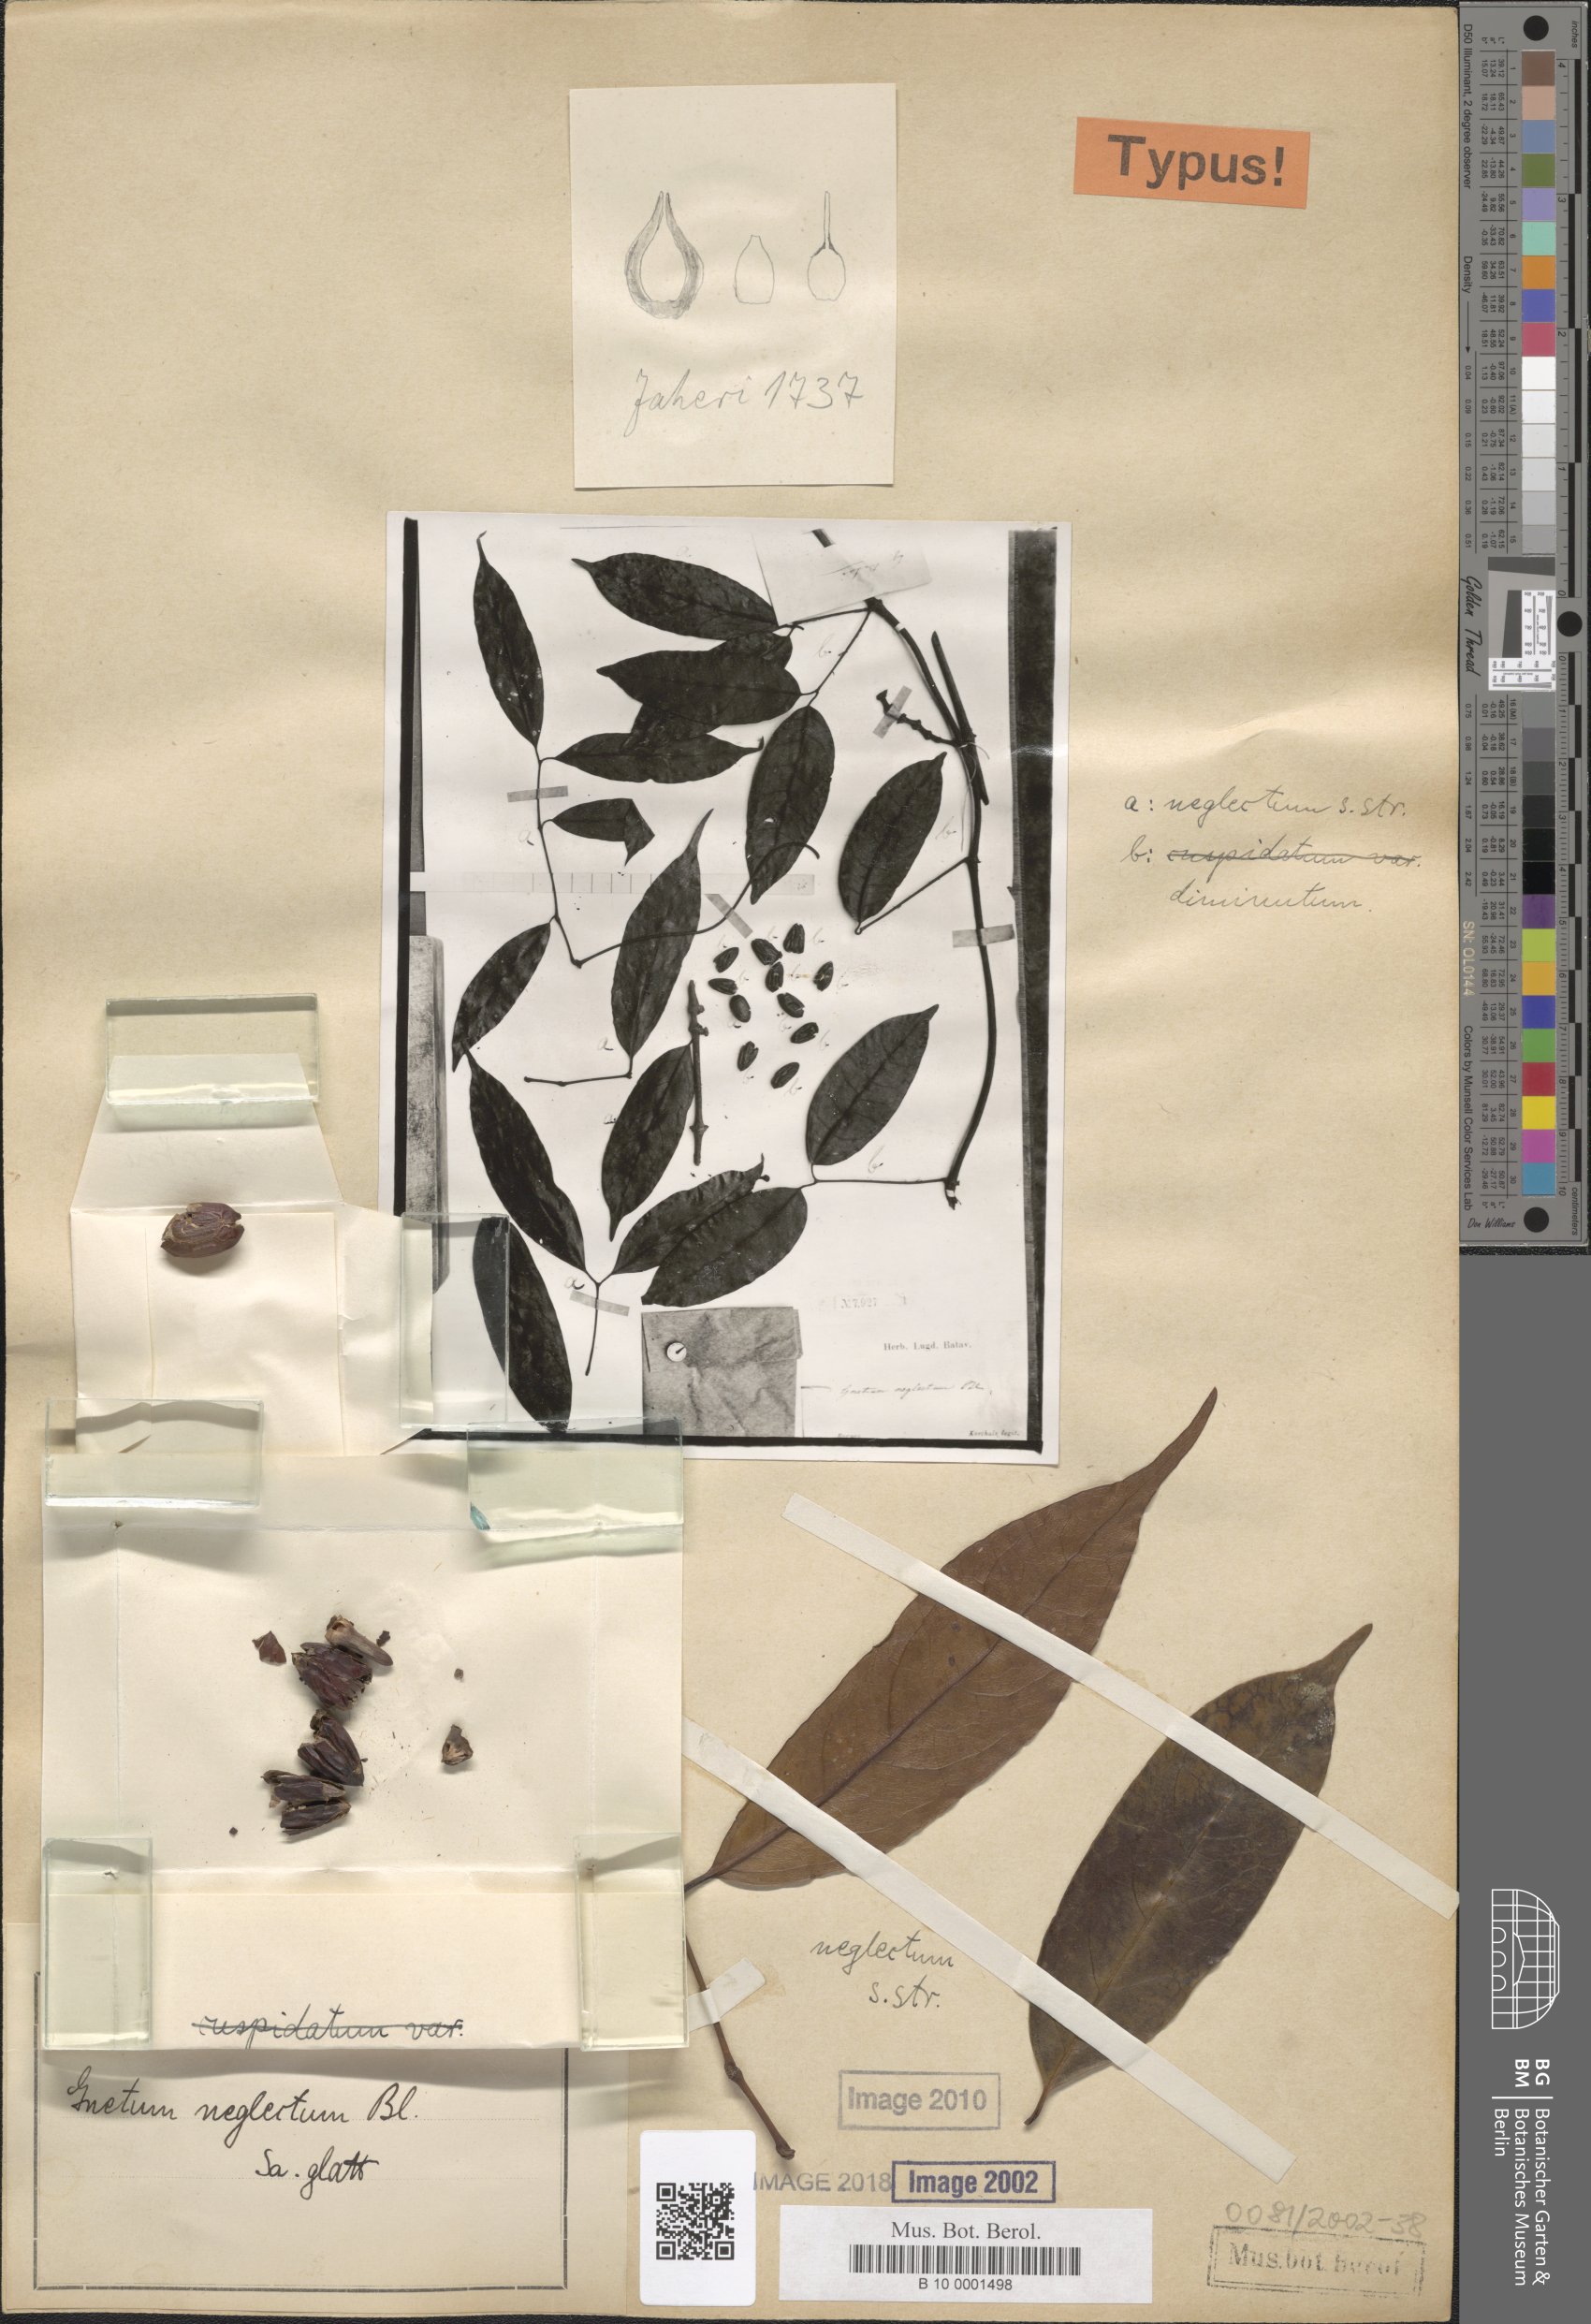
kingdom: Plantae
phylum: Tracheophyta
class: Gnetopsida
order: Gnetales
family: Gnetaceae
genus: Gnetum
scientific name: Gnetum neglectum
